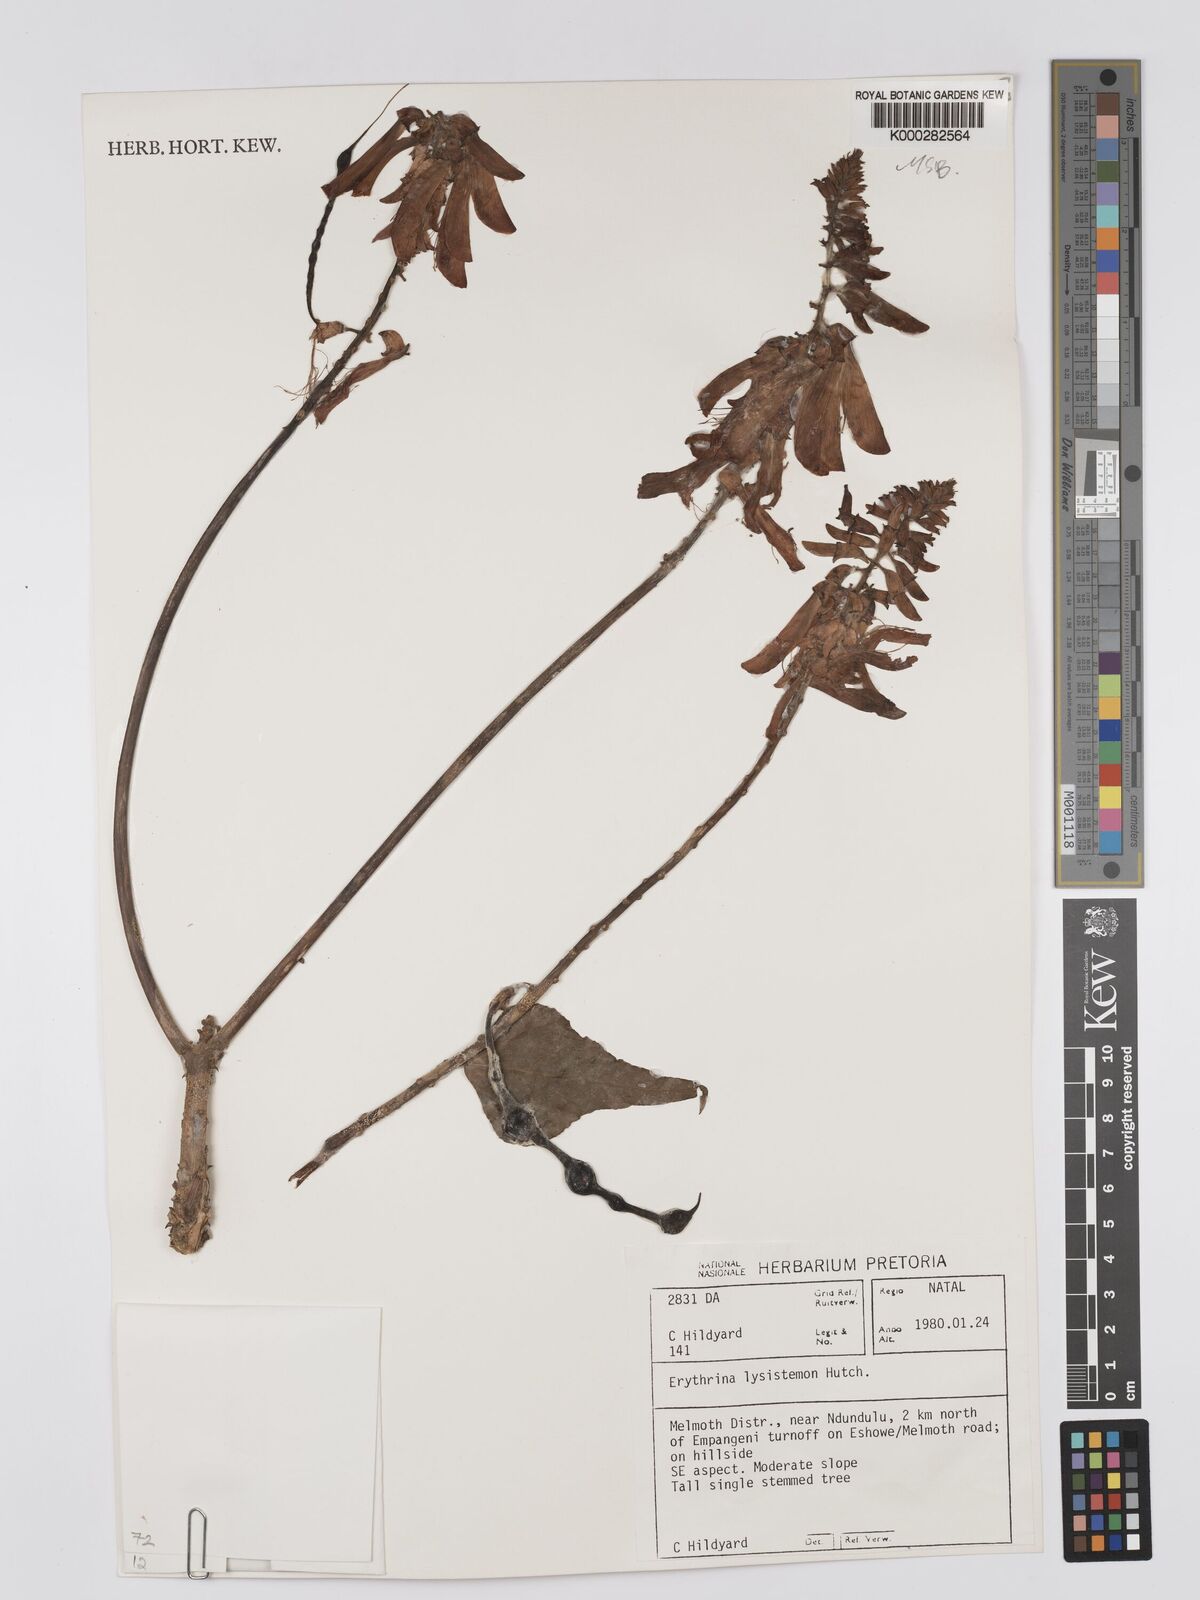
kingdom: Plantae
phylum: Tracheophyta
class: Magnoliopsida
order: Fabales
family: Fabaceae
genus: Erythrina
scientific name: Erythrina lysistemon
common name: Common coral tree
